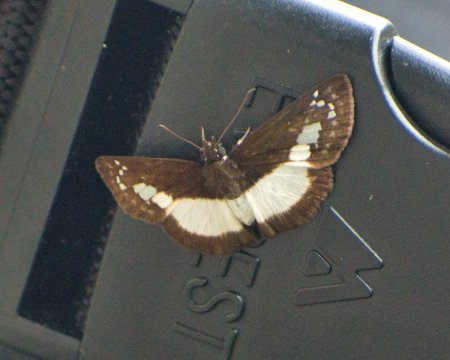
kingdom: Animalia
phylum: Arthropoda
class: Insecta
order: Lepidoptera
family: Hesperiidae
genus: Milanion
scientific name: Milanion marciana
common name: Marciana Skipper
